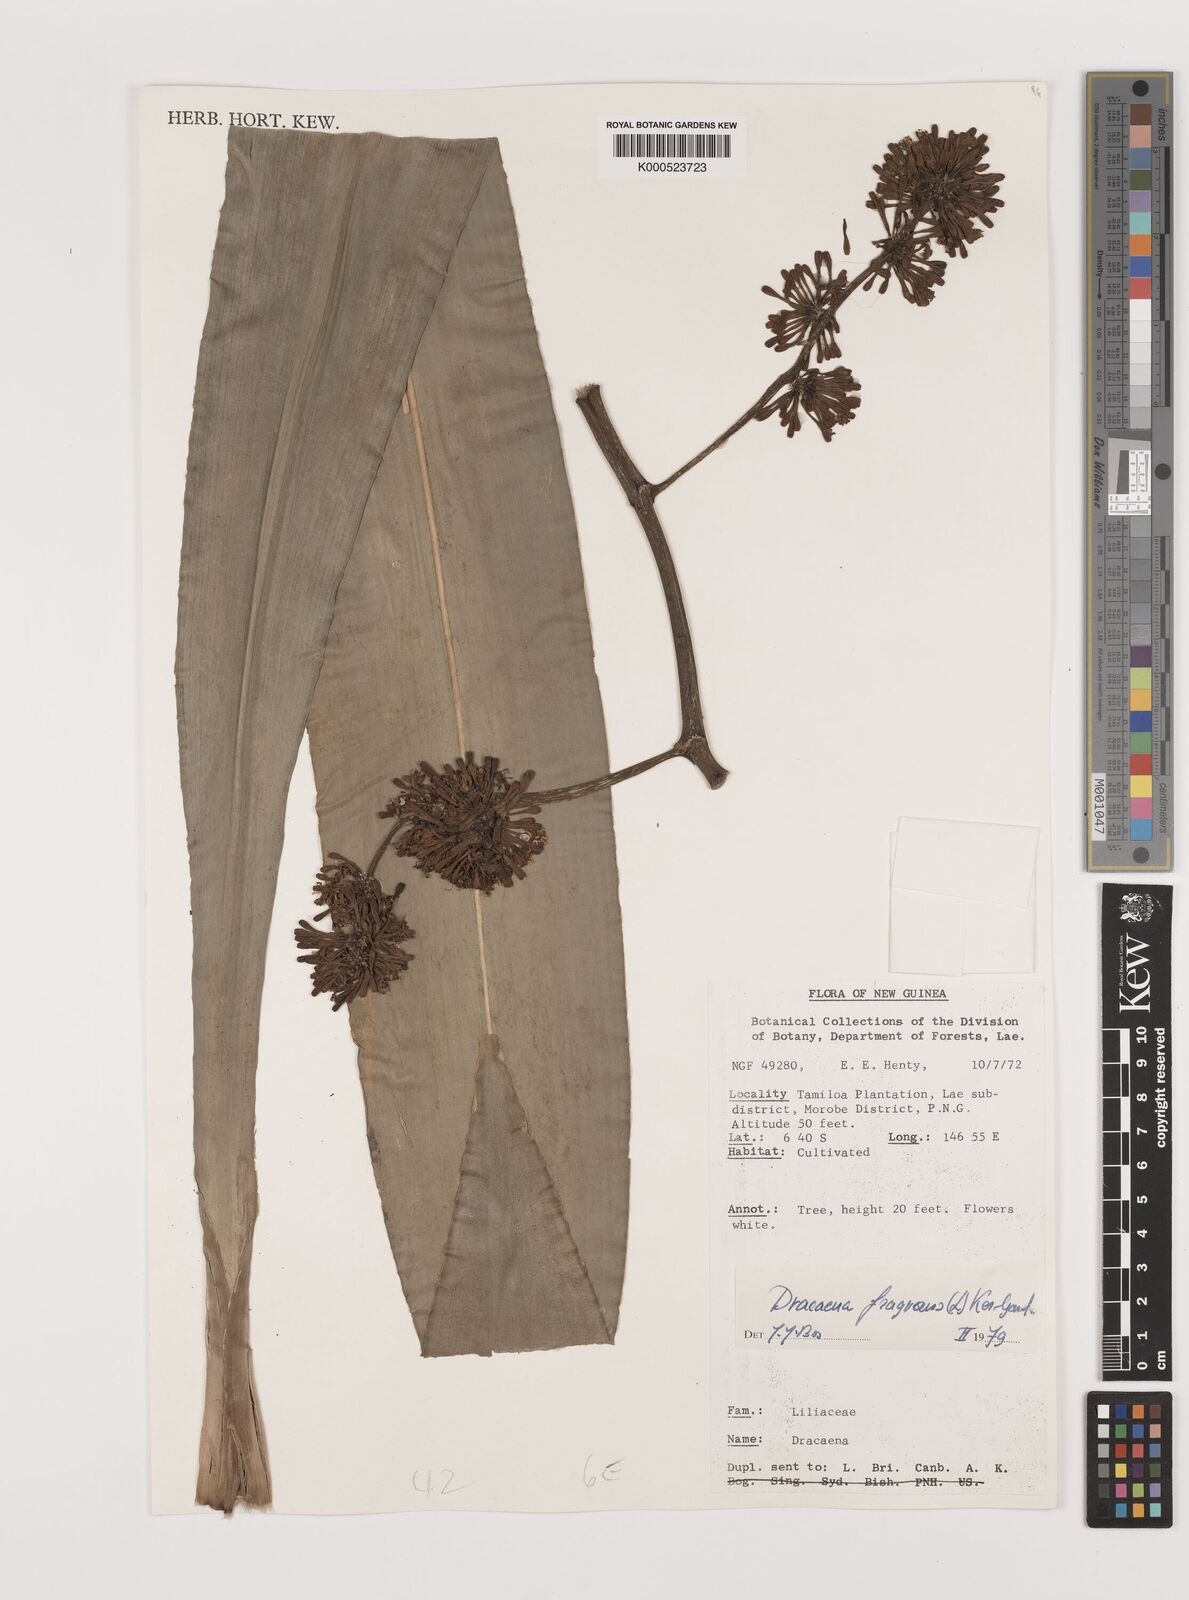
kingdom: Plantae
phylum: Tracheophyta
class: Liliopsida
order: Asparagales
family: Asparagaceae
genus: Dracaena
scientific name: Dracaena fragrans
